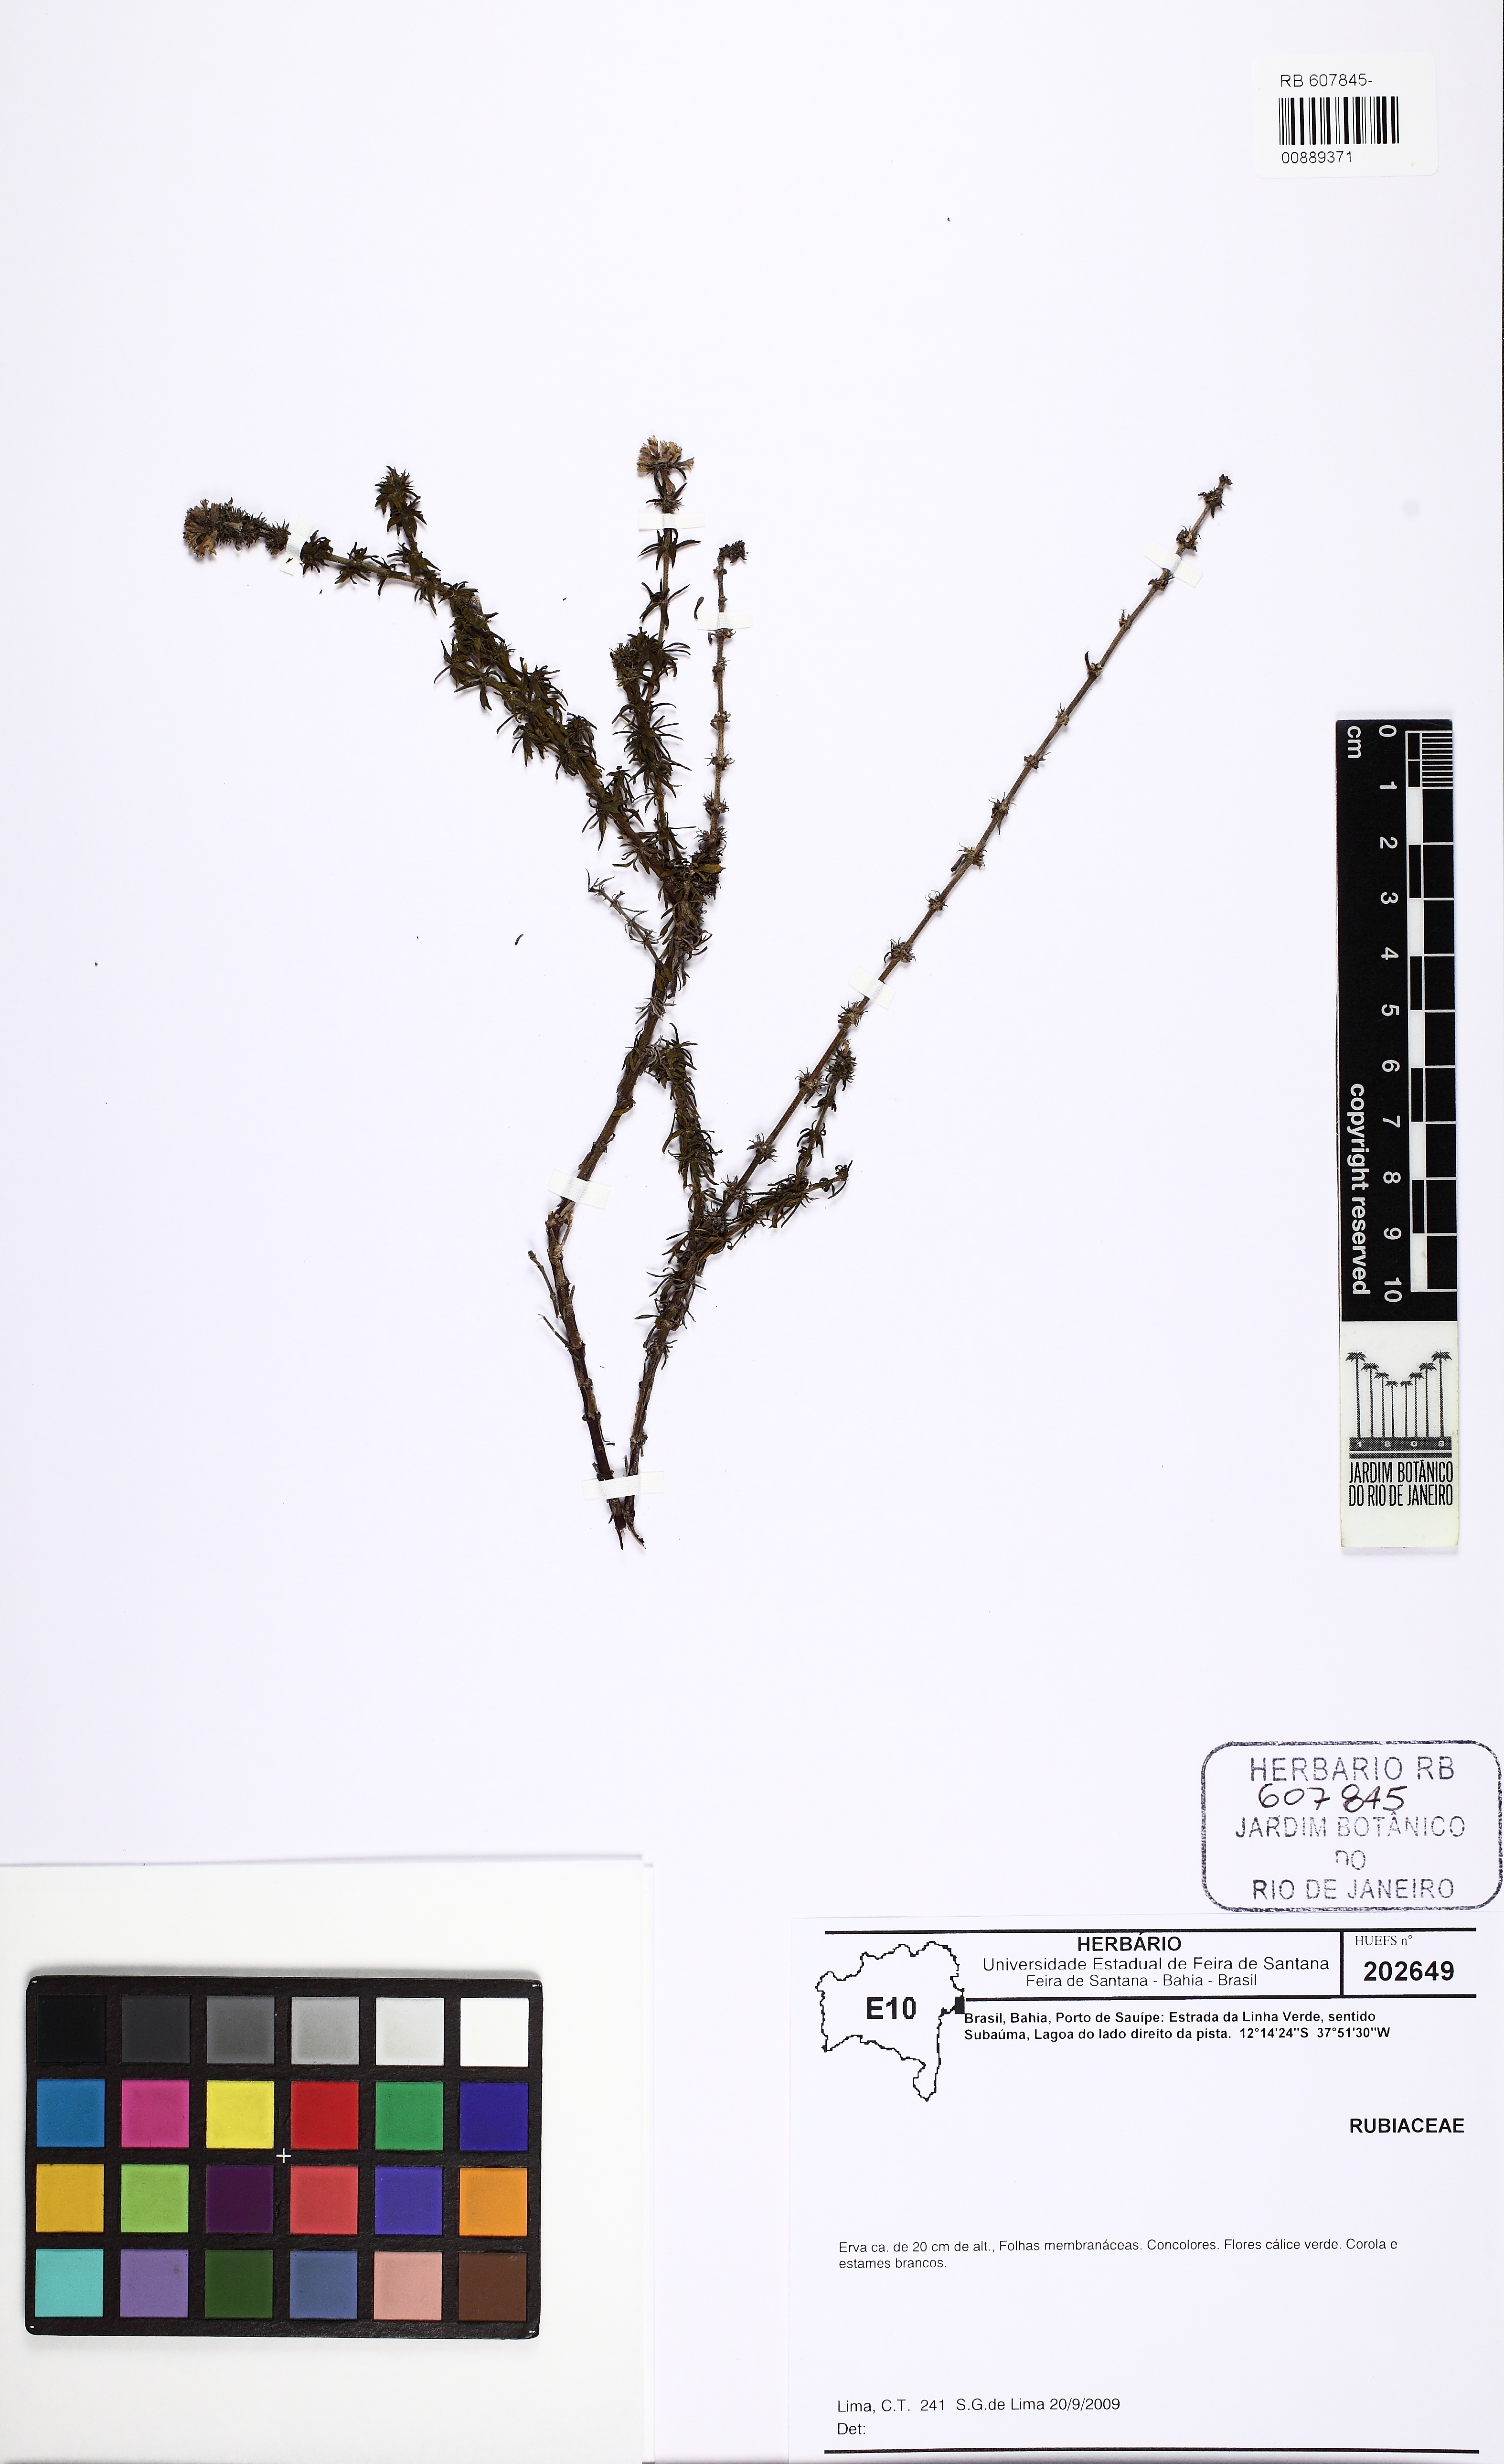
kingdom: Plantae
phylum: Tracheophyta
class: Magnoliopsida
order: Gentianales
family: Rubiaceae
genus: Spermacoce
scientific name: Spermacoce verticillata
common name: Shrubby false buttonweed
